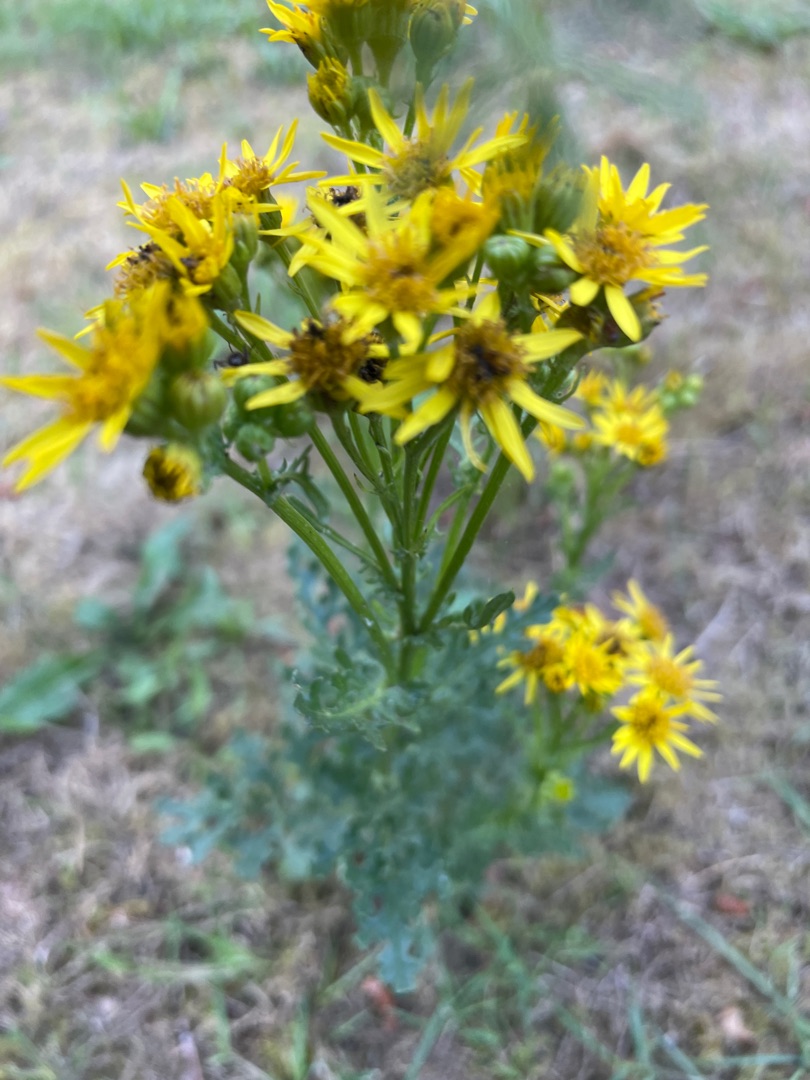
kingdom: Plantae
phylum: Tracheophyta
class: Magnoliopsida
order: Asterales
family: Asteraceae
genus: Jacobaea
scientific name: Jacobaea vulgaris
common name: Eng-brandbæger
